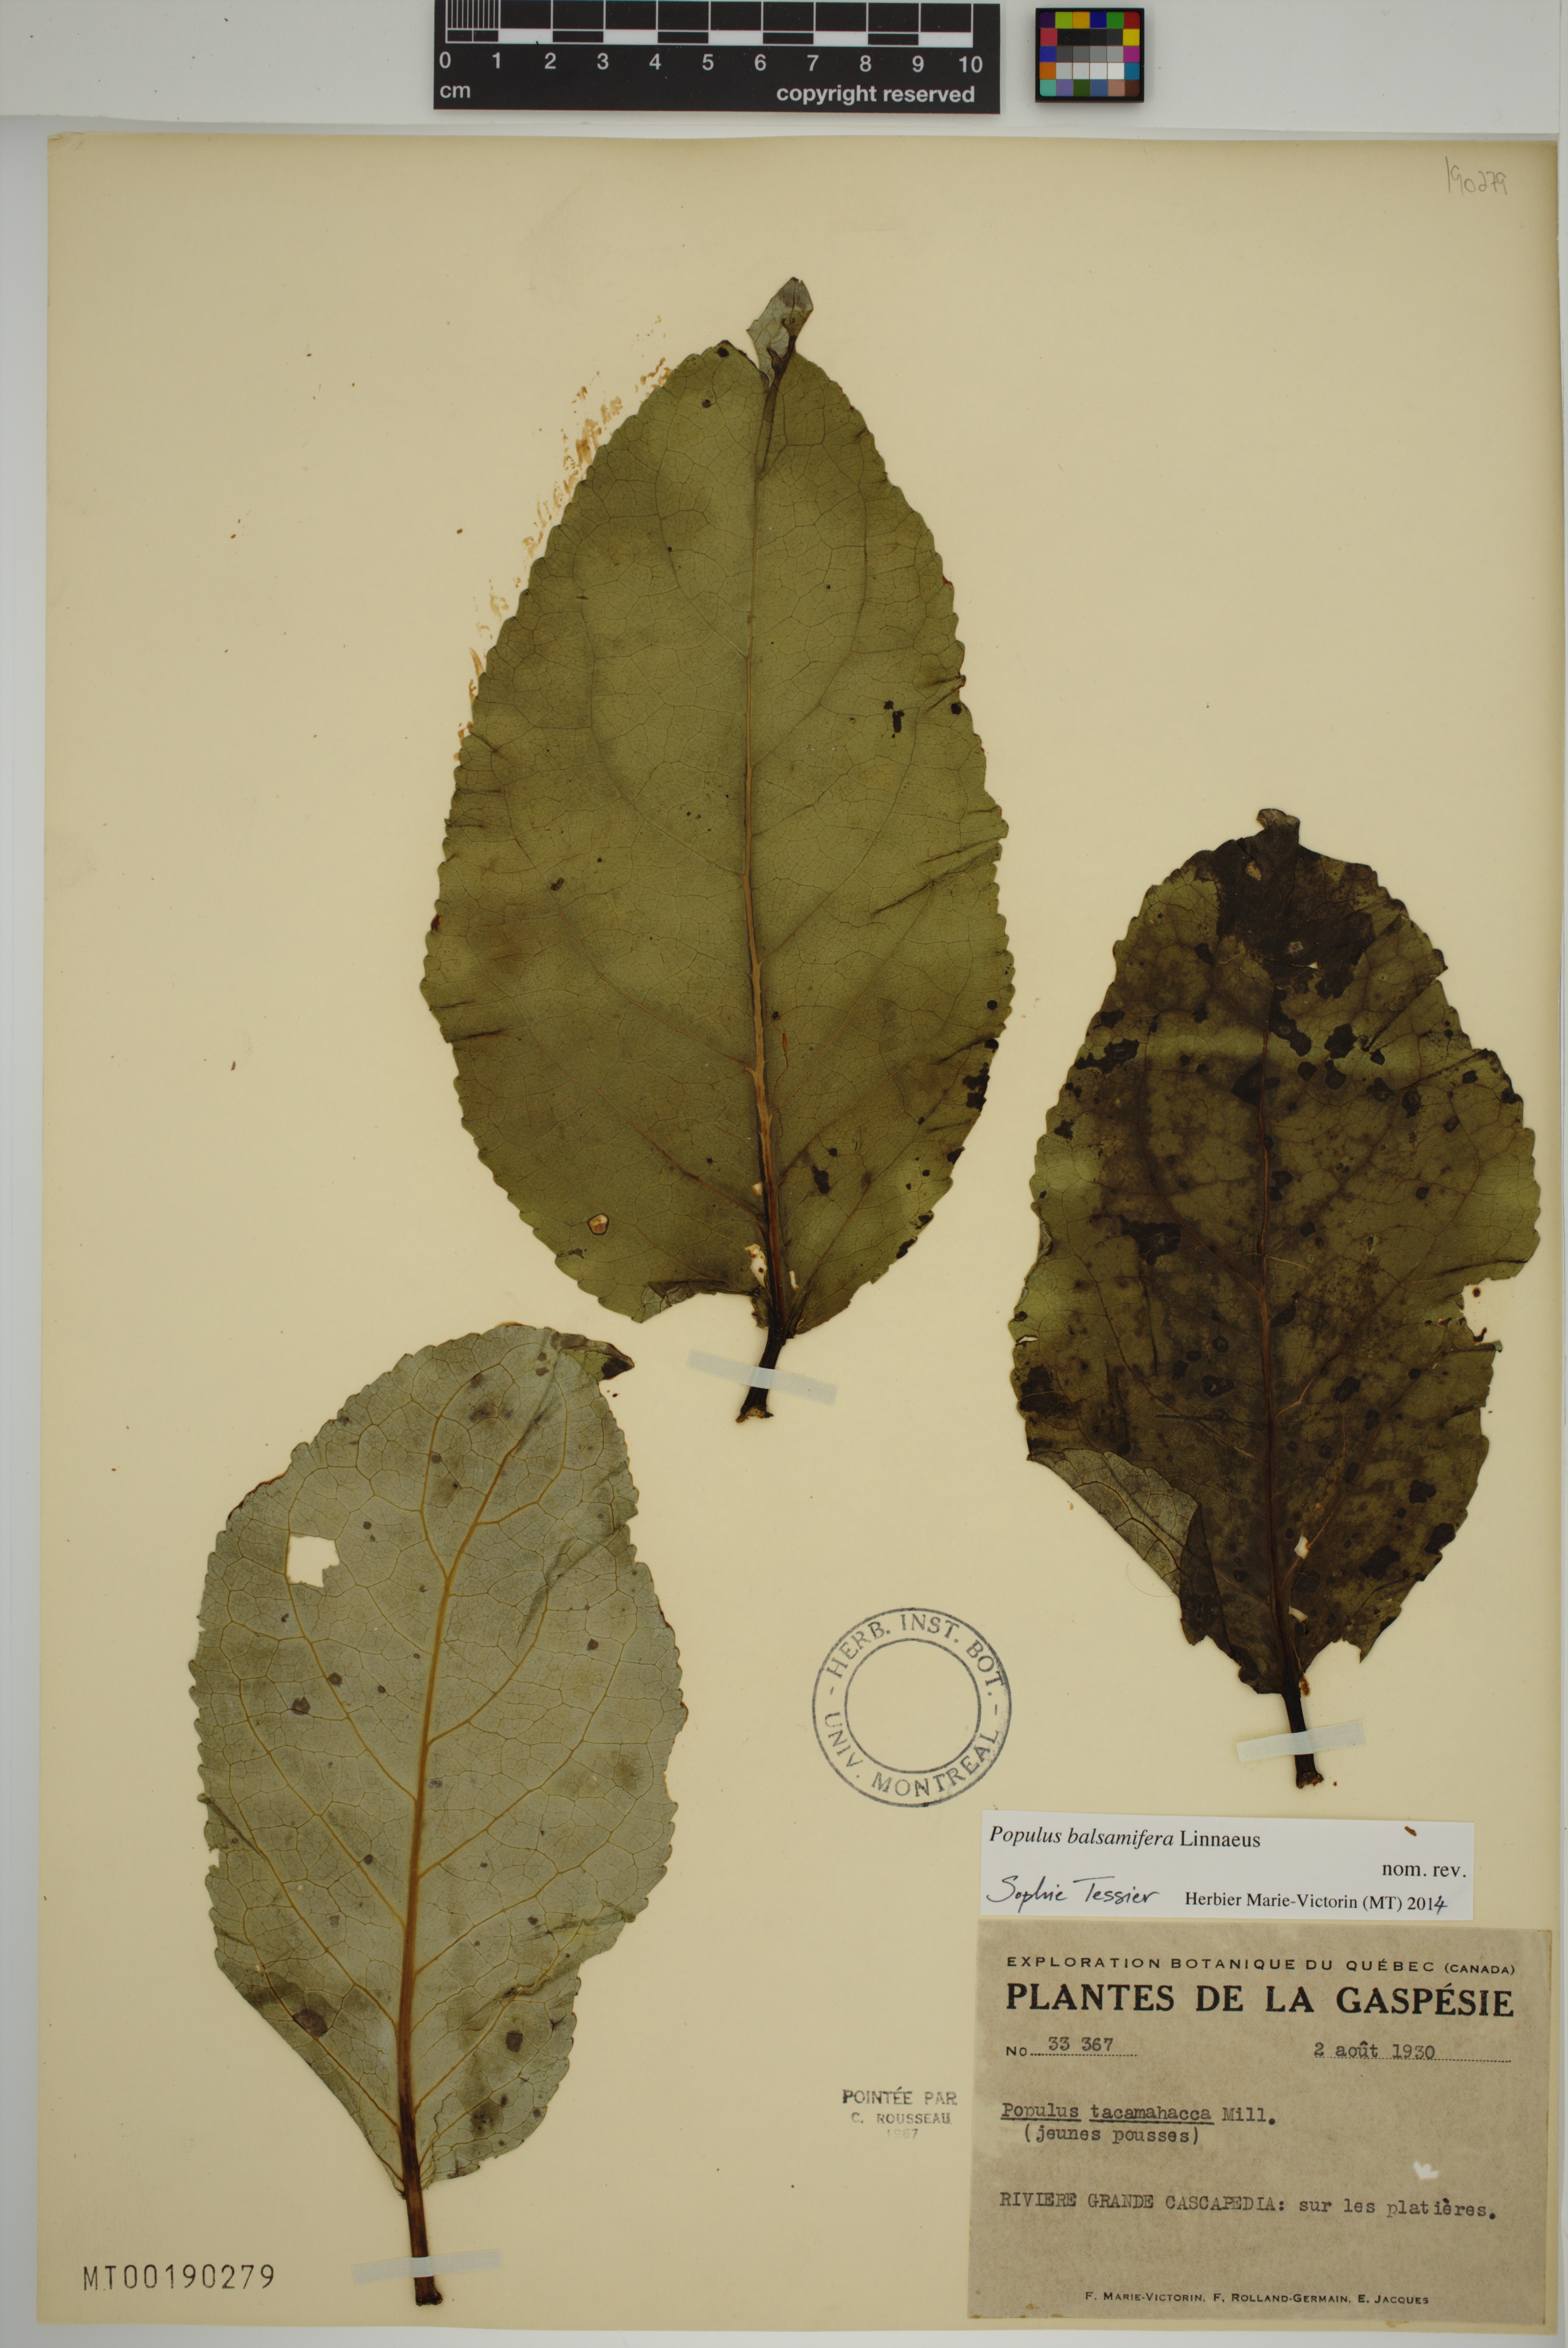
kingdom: Plantae
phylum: Tracheophyta
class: Magnoliopsida
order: Malpighiales
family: Salicaceae
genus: Populus
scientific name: Populus balsamifera
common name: Balsam poplar
